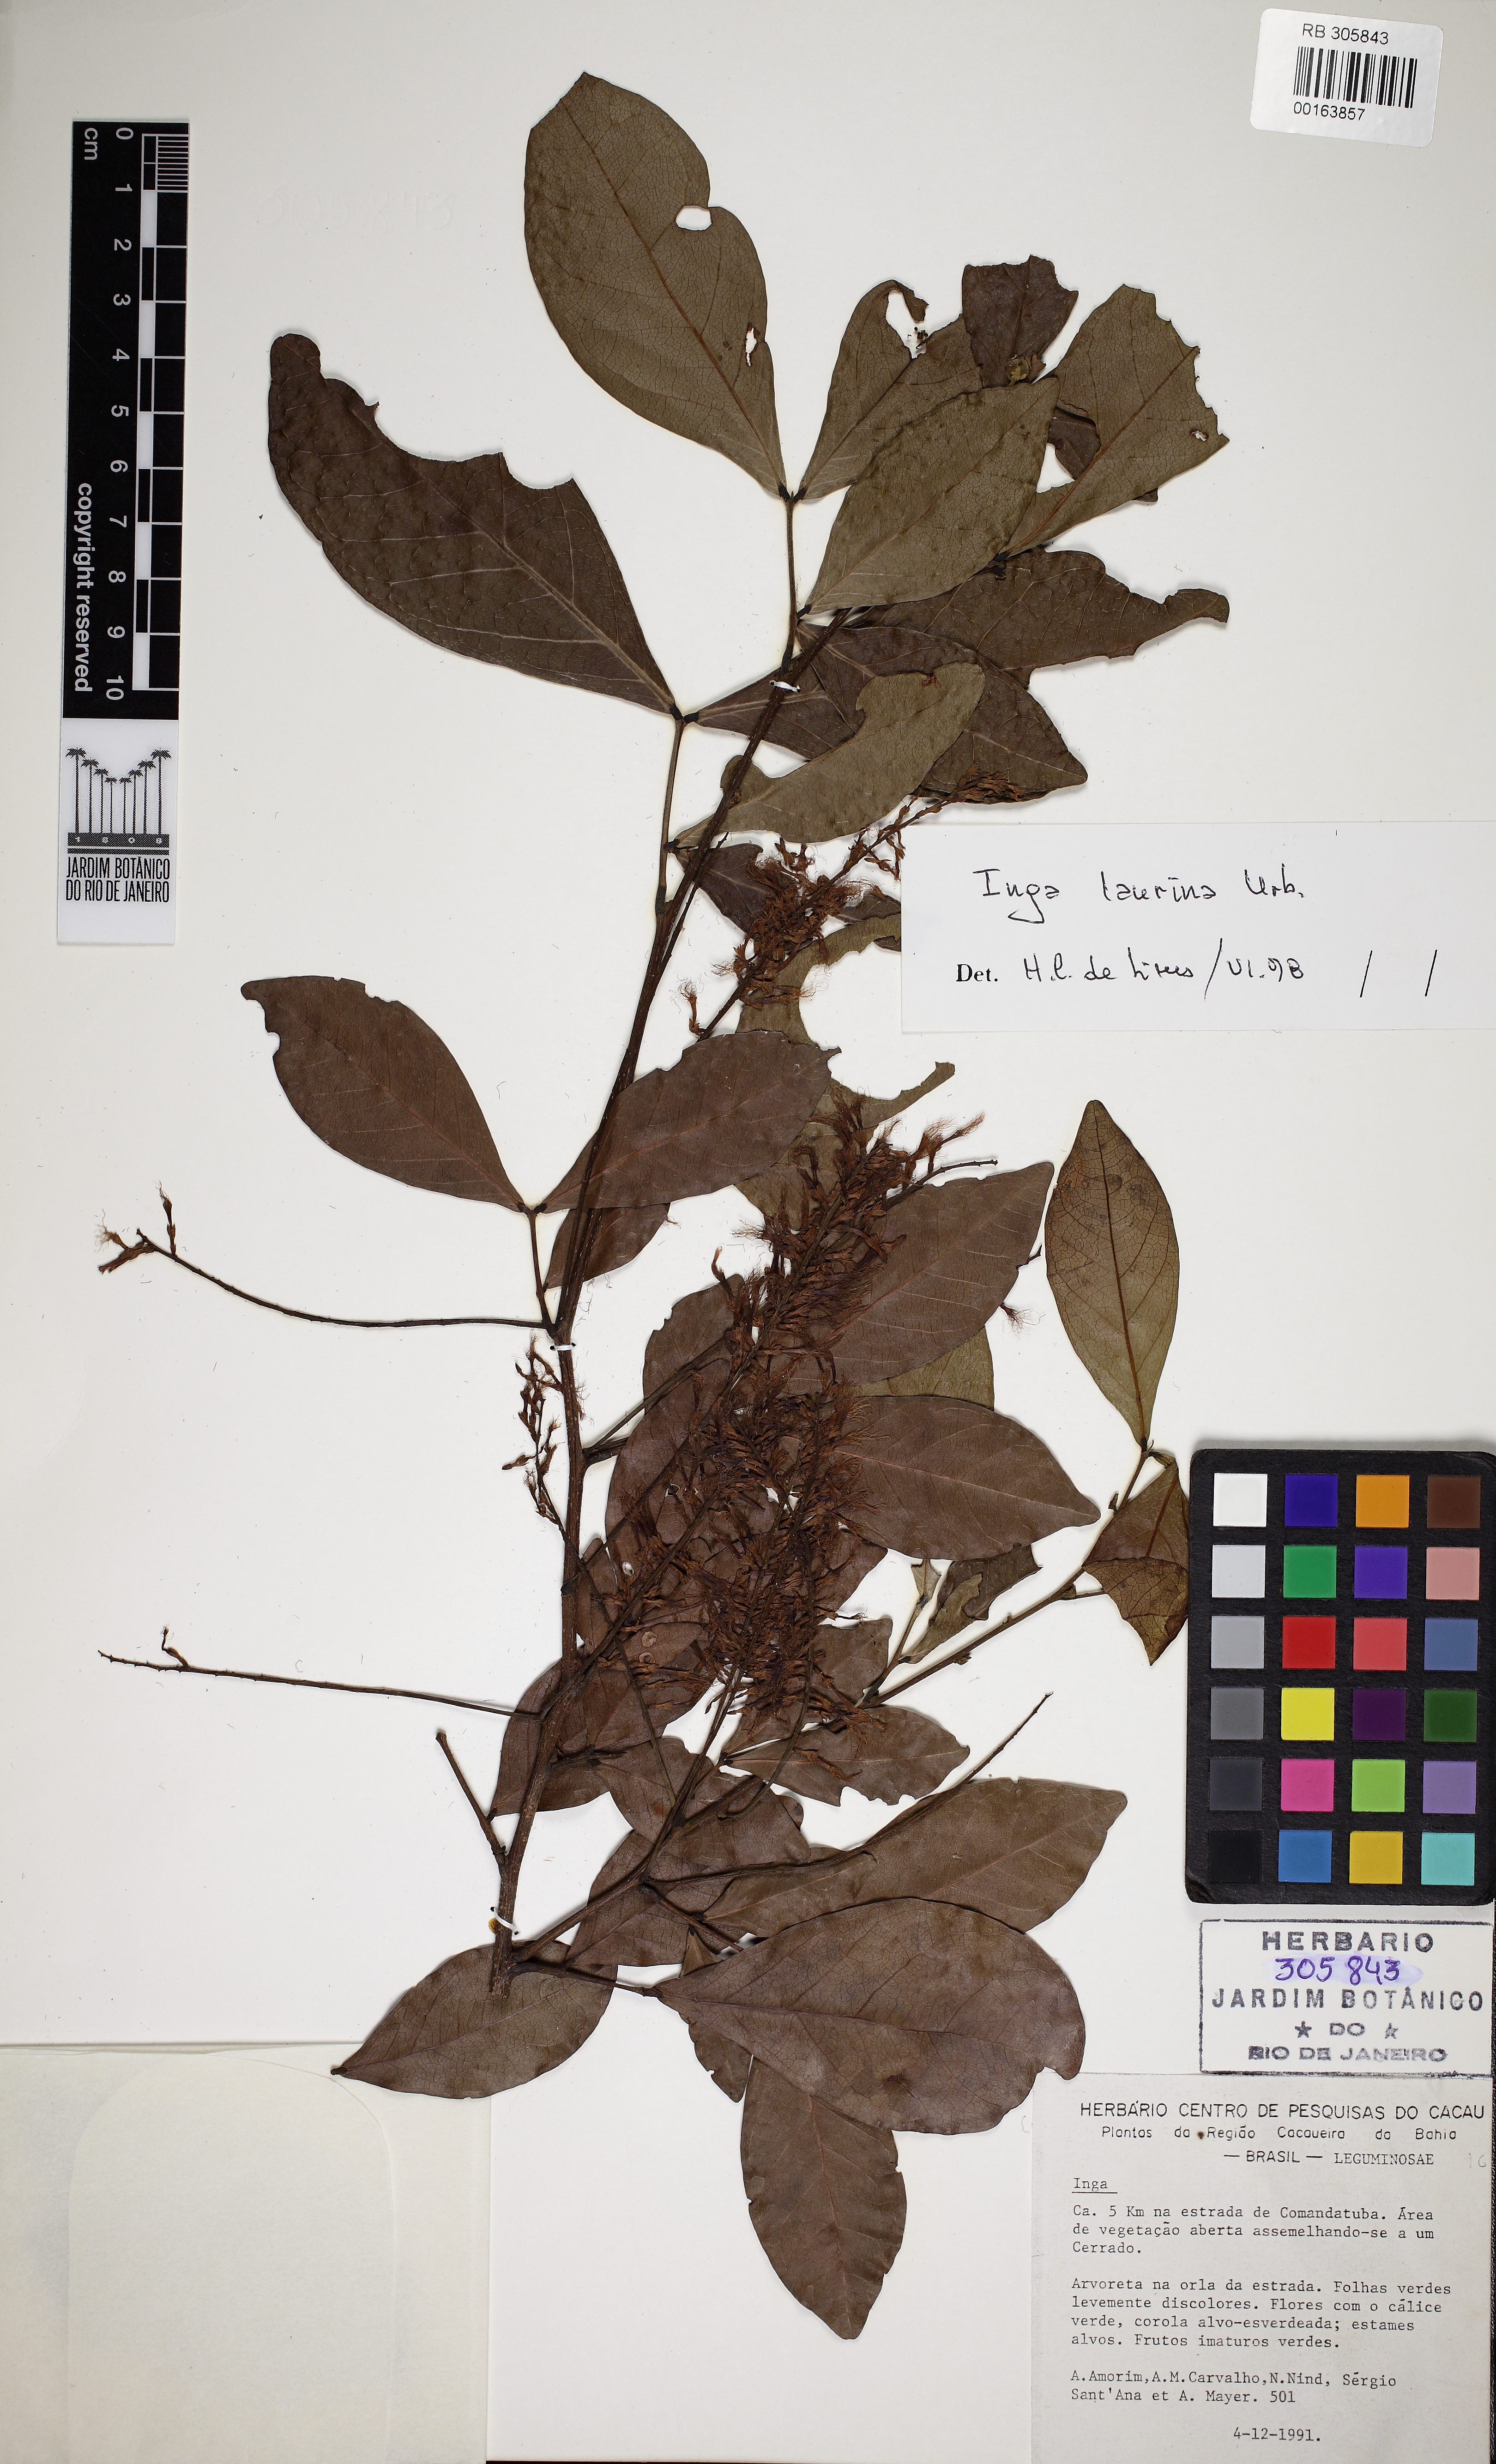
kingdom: Plantae
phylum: Tracheophyta
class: Magnoliopsida
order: Fabales
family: Fabaceae
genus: Inga
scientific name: Inga
